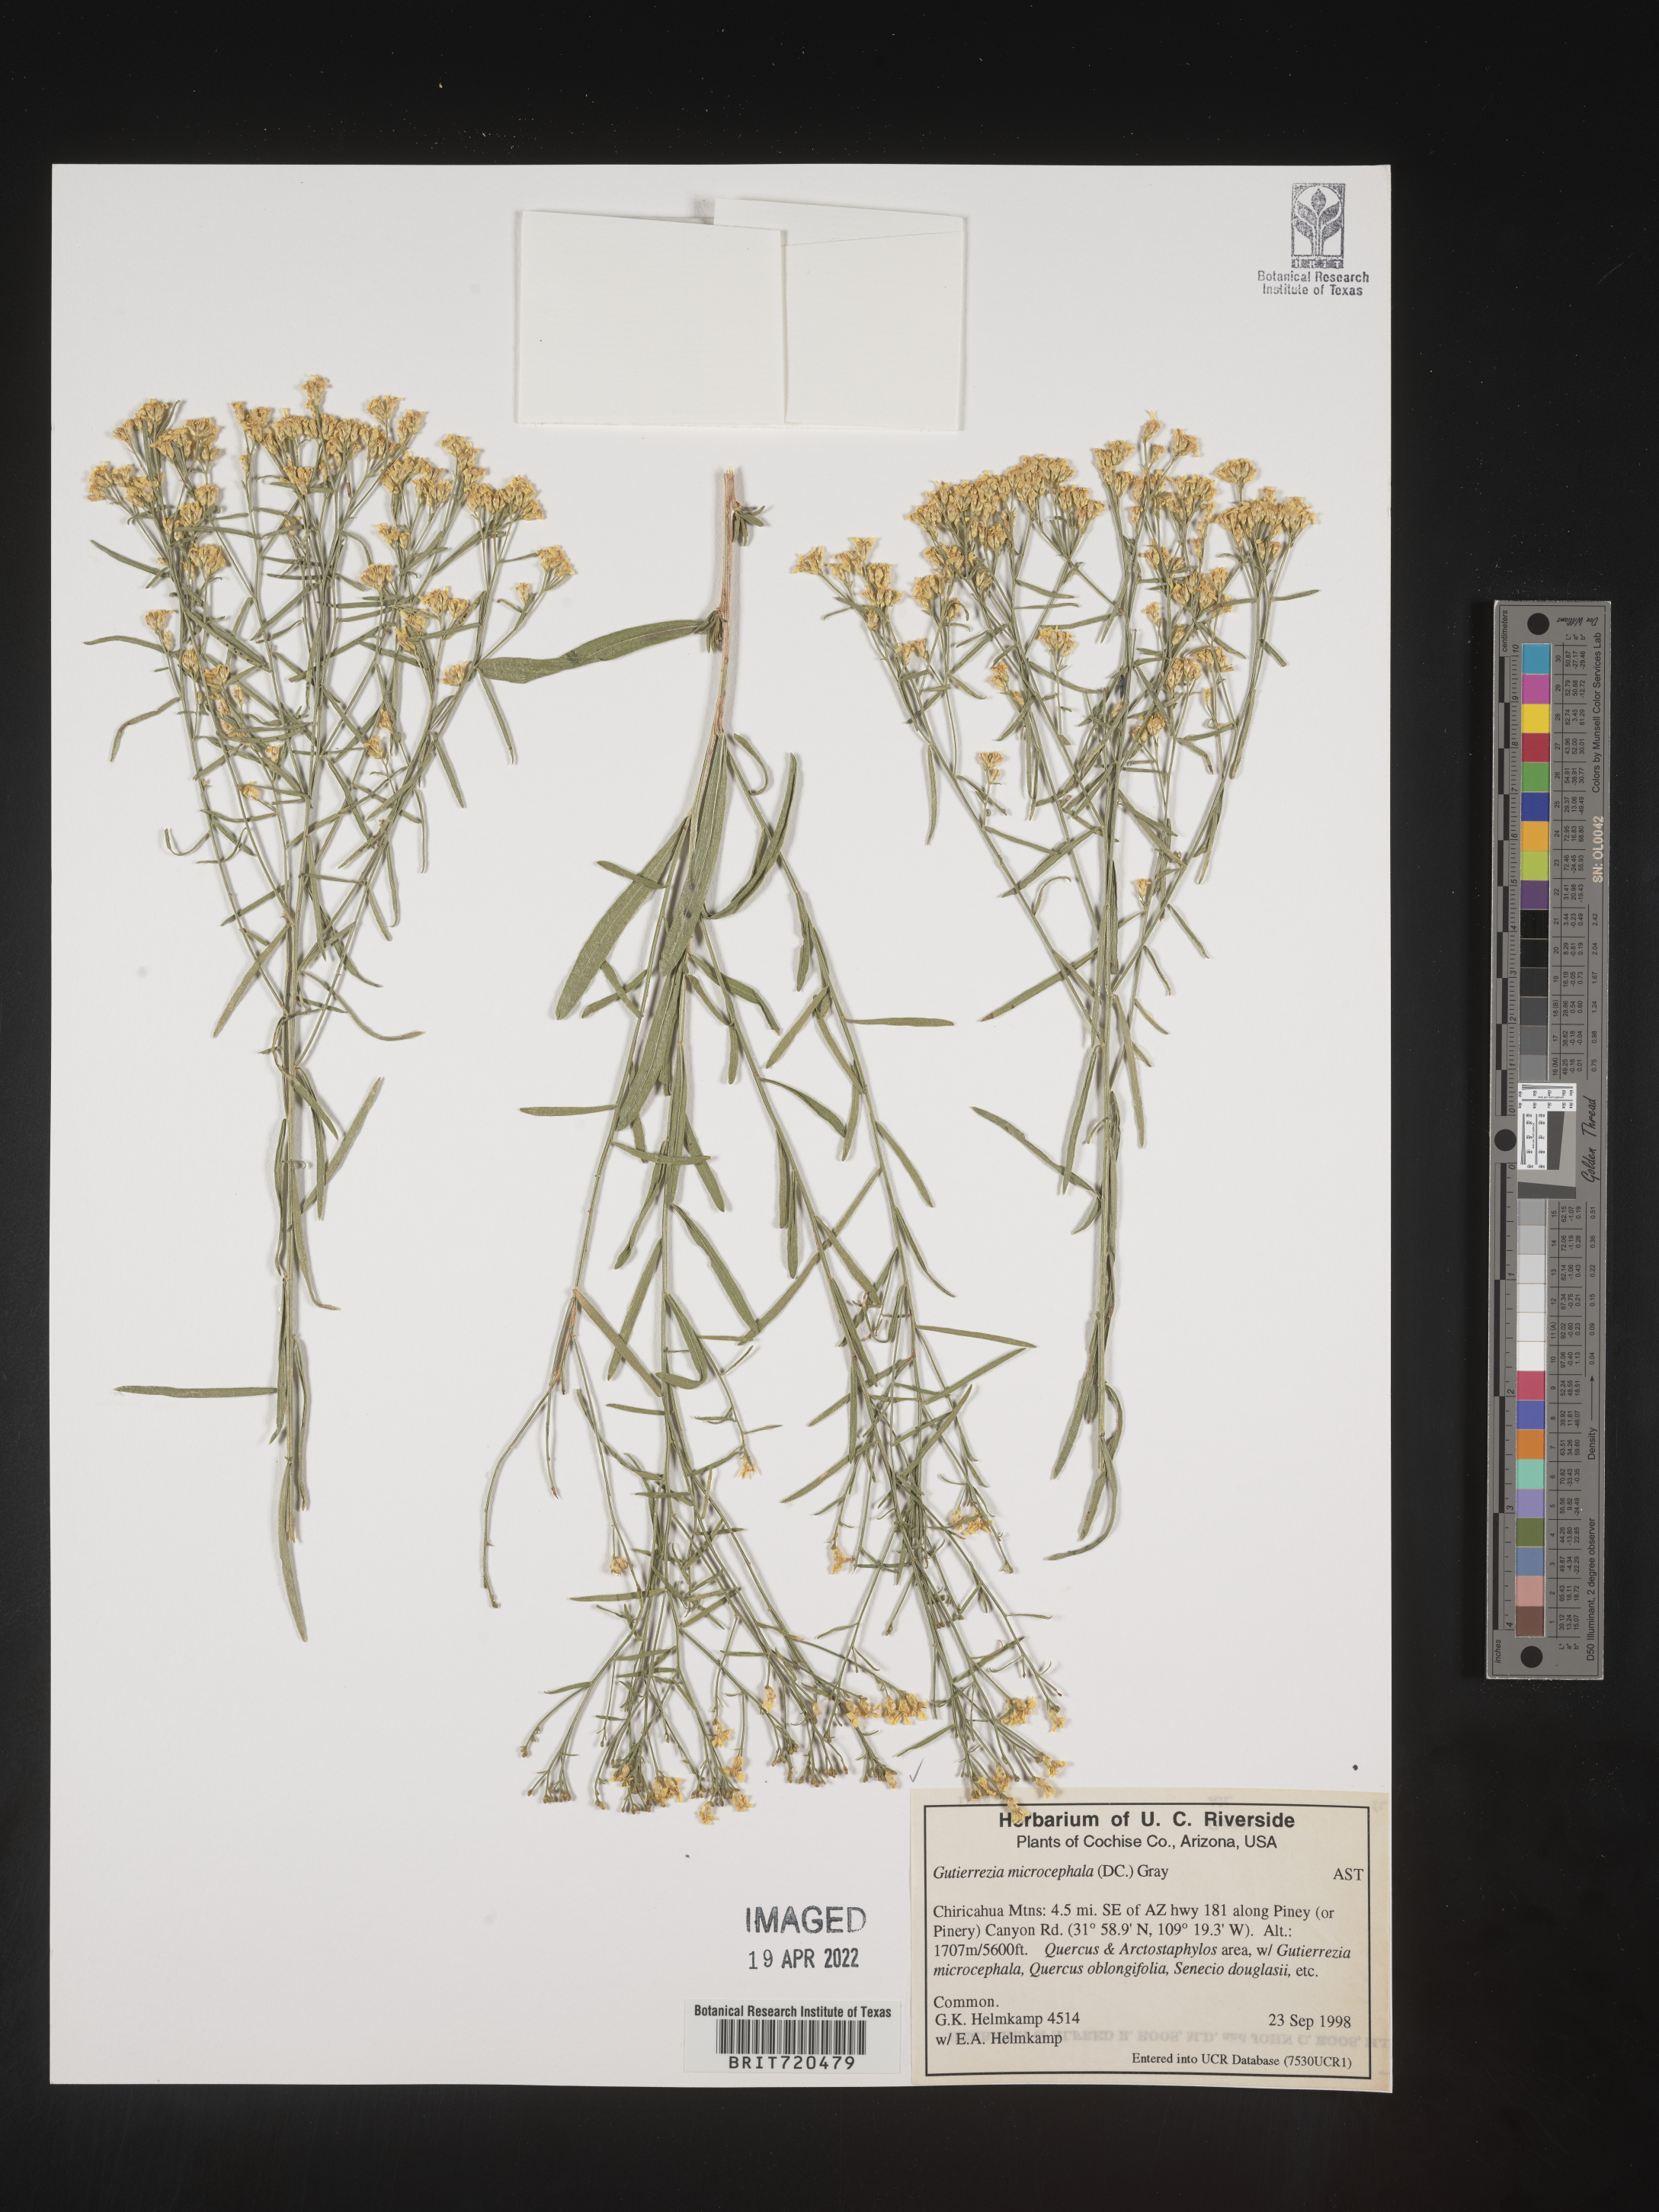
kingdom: Plantae
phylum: Tracheophyta
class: Magnoliopsida
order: Asterales
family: Asteraceae
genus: Gutierrezia
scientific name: Gutierrezia microcephala
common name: Thread snakeweed
